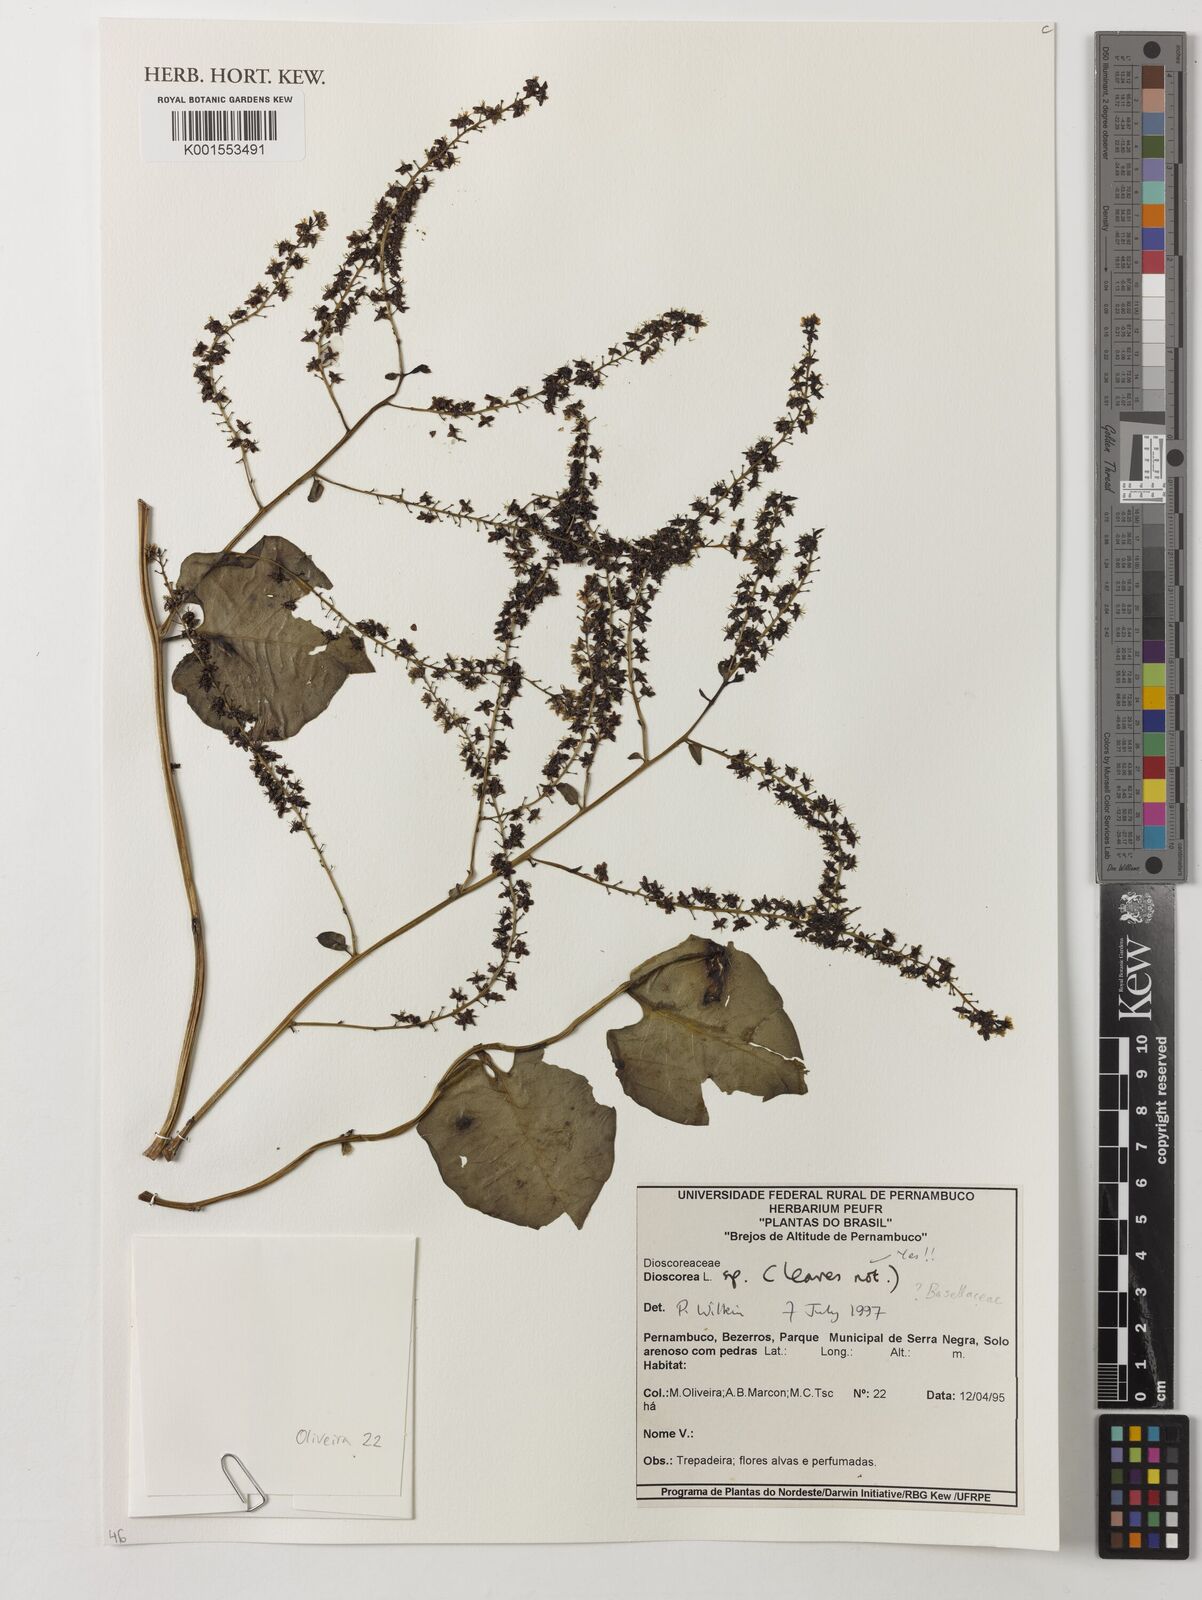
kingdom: Plantae
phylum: Tracheophyta
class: Liliopsida
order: Dioscoreales
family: Dioscoreaceae
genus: Dioscorea
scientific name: Dioscorea
